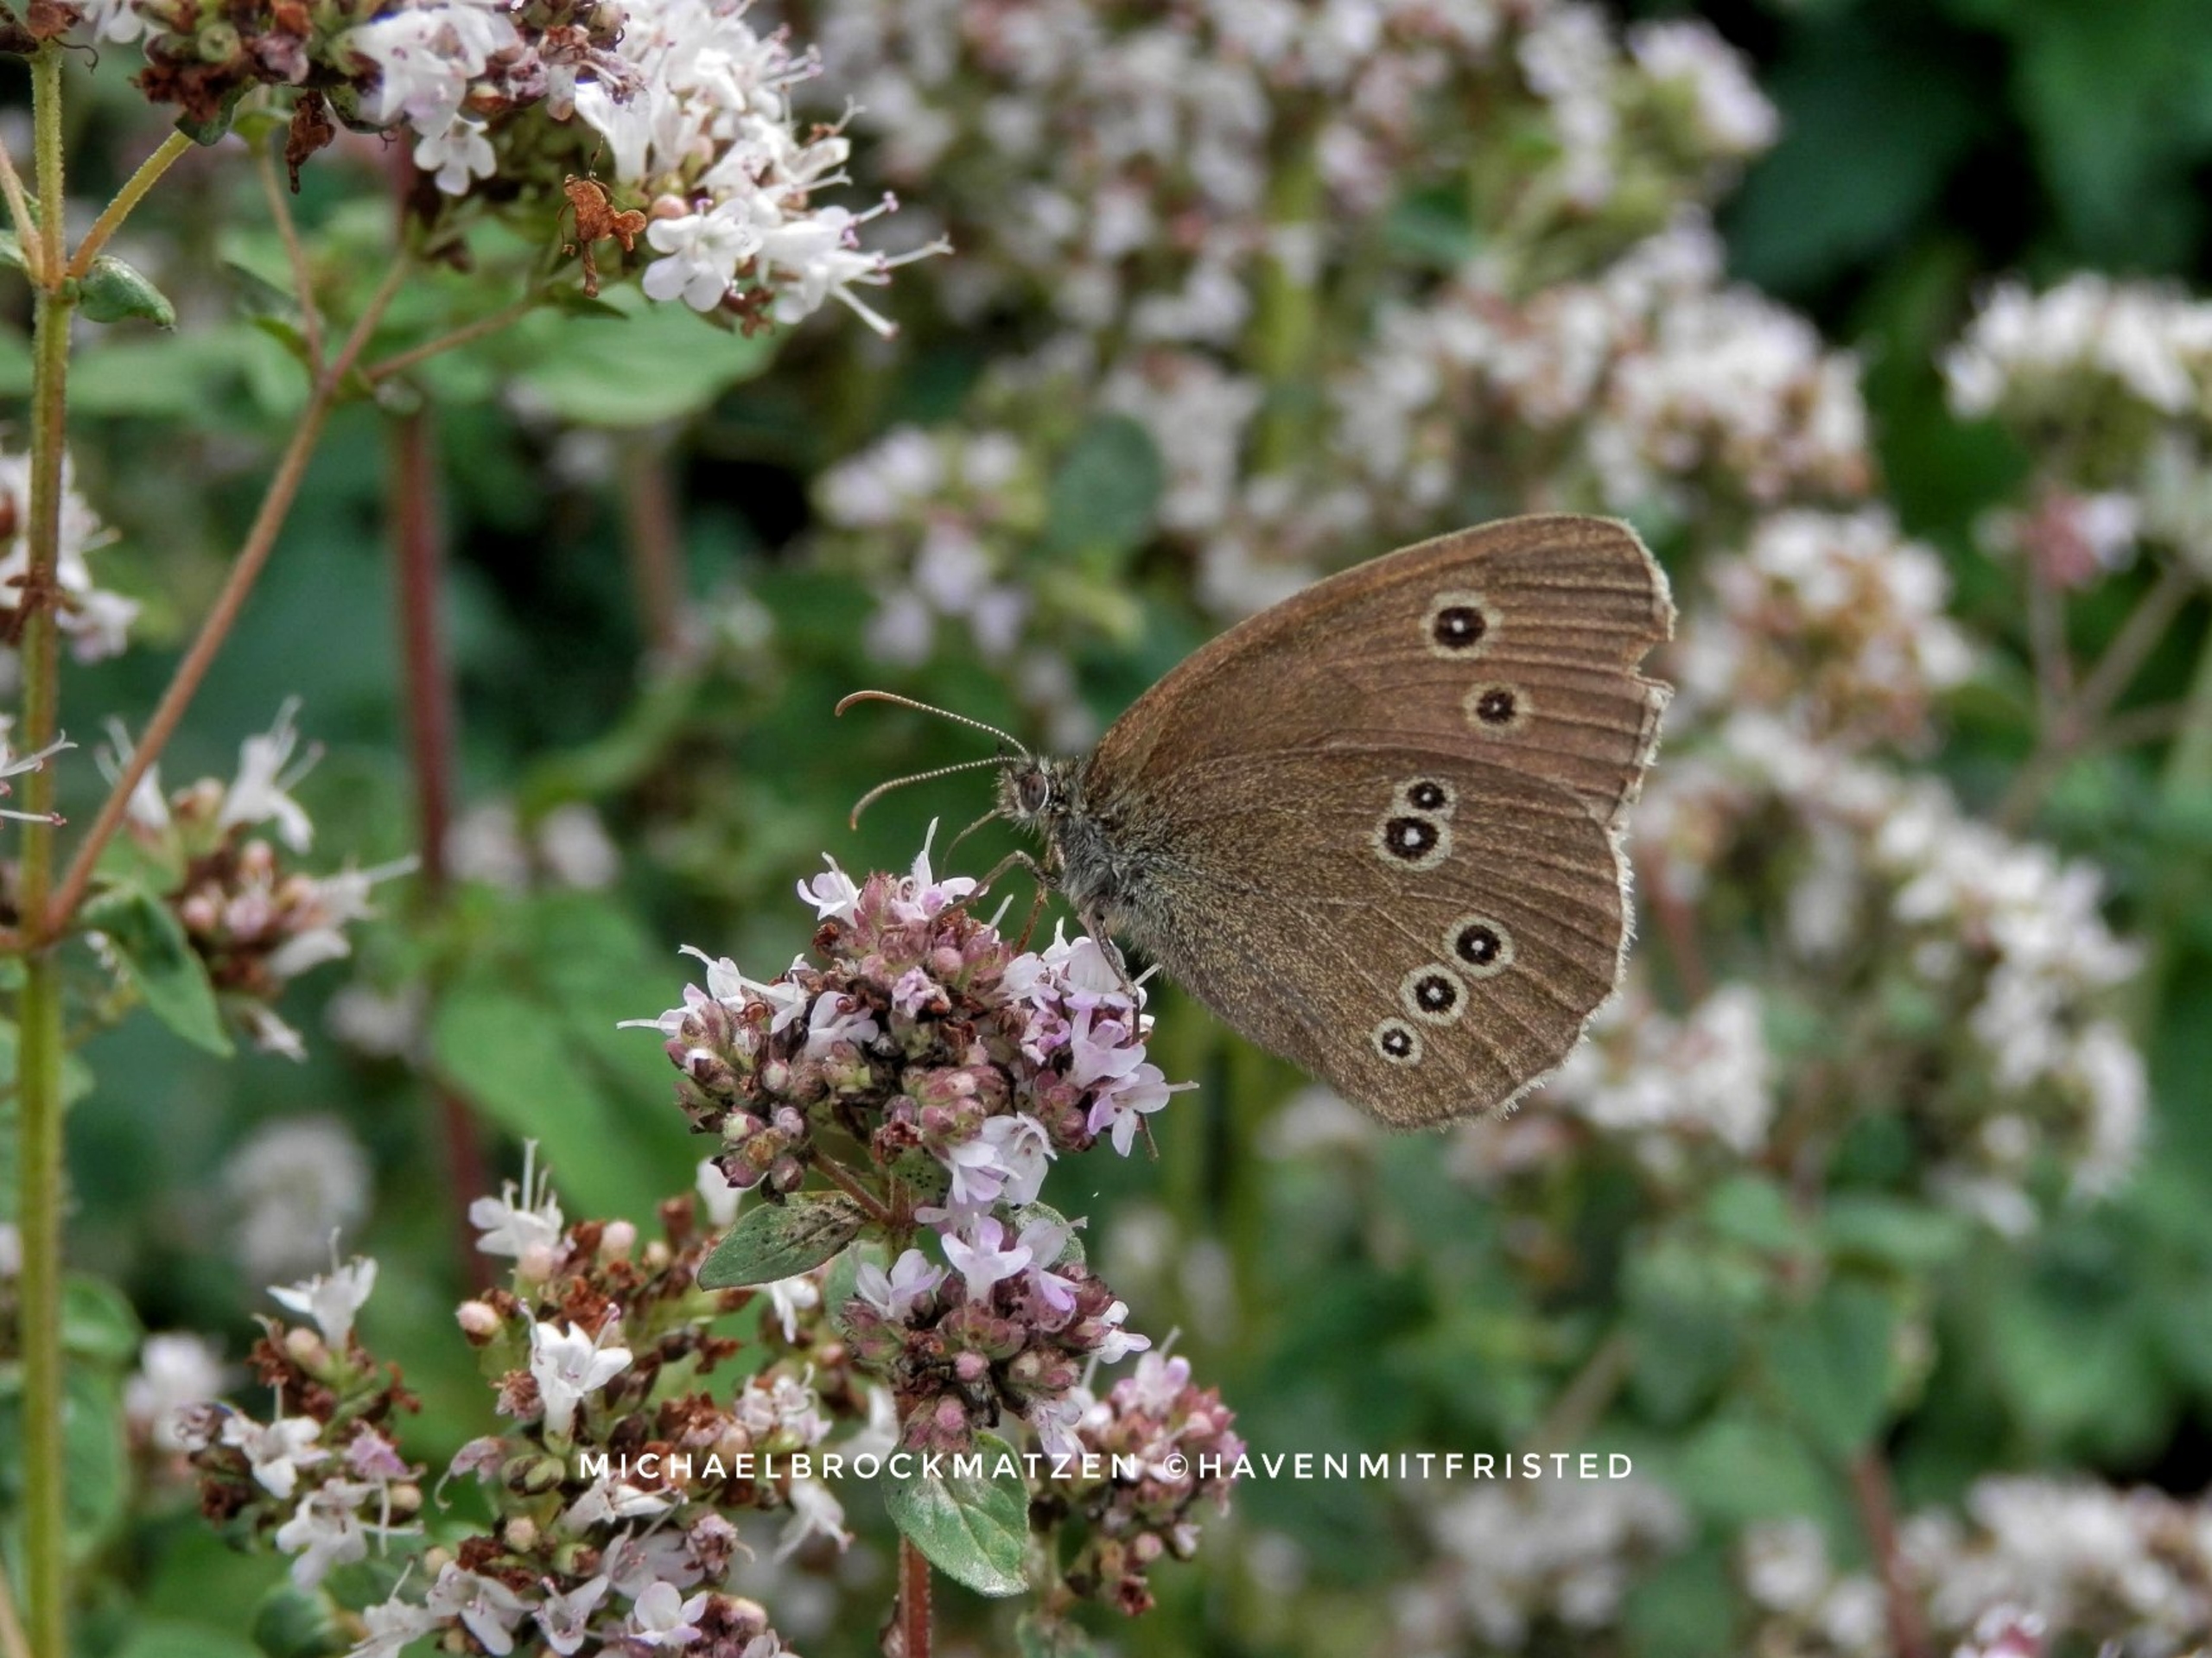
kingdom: Animalia
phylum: Arthropoda
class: Insecta
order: Lepidoptera
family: Nymphalidae
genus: Aphantopus
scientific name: Aphantopus hyperantus
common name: Engrandøje
